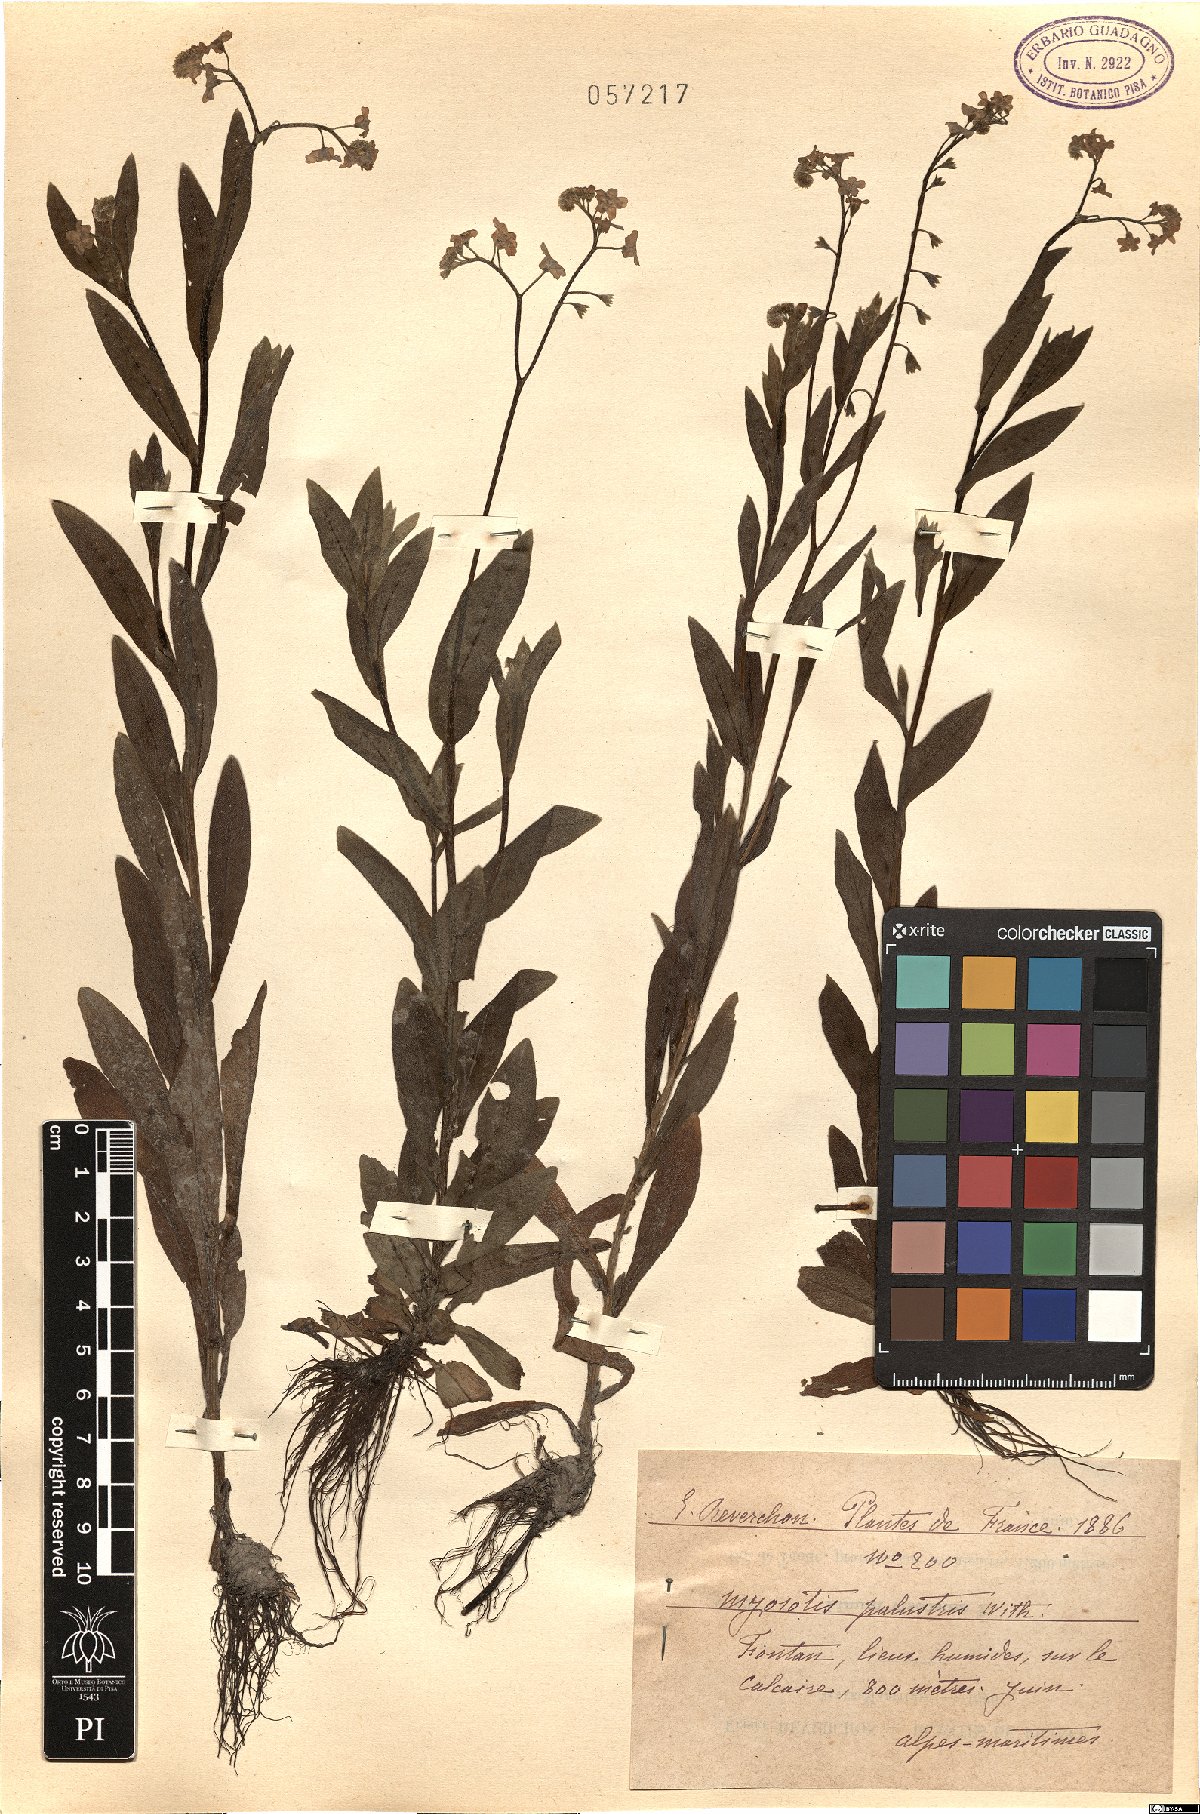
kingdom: Plantae
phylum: Tracheophyta
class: Magnoliopsida
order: Boraginales
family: Boraginaceae
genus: Myosotis
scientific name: Myosotis
